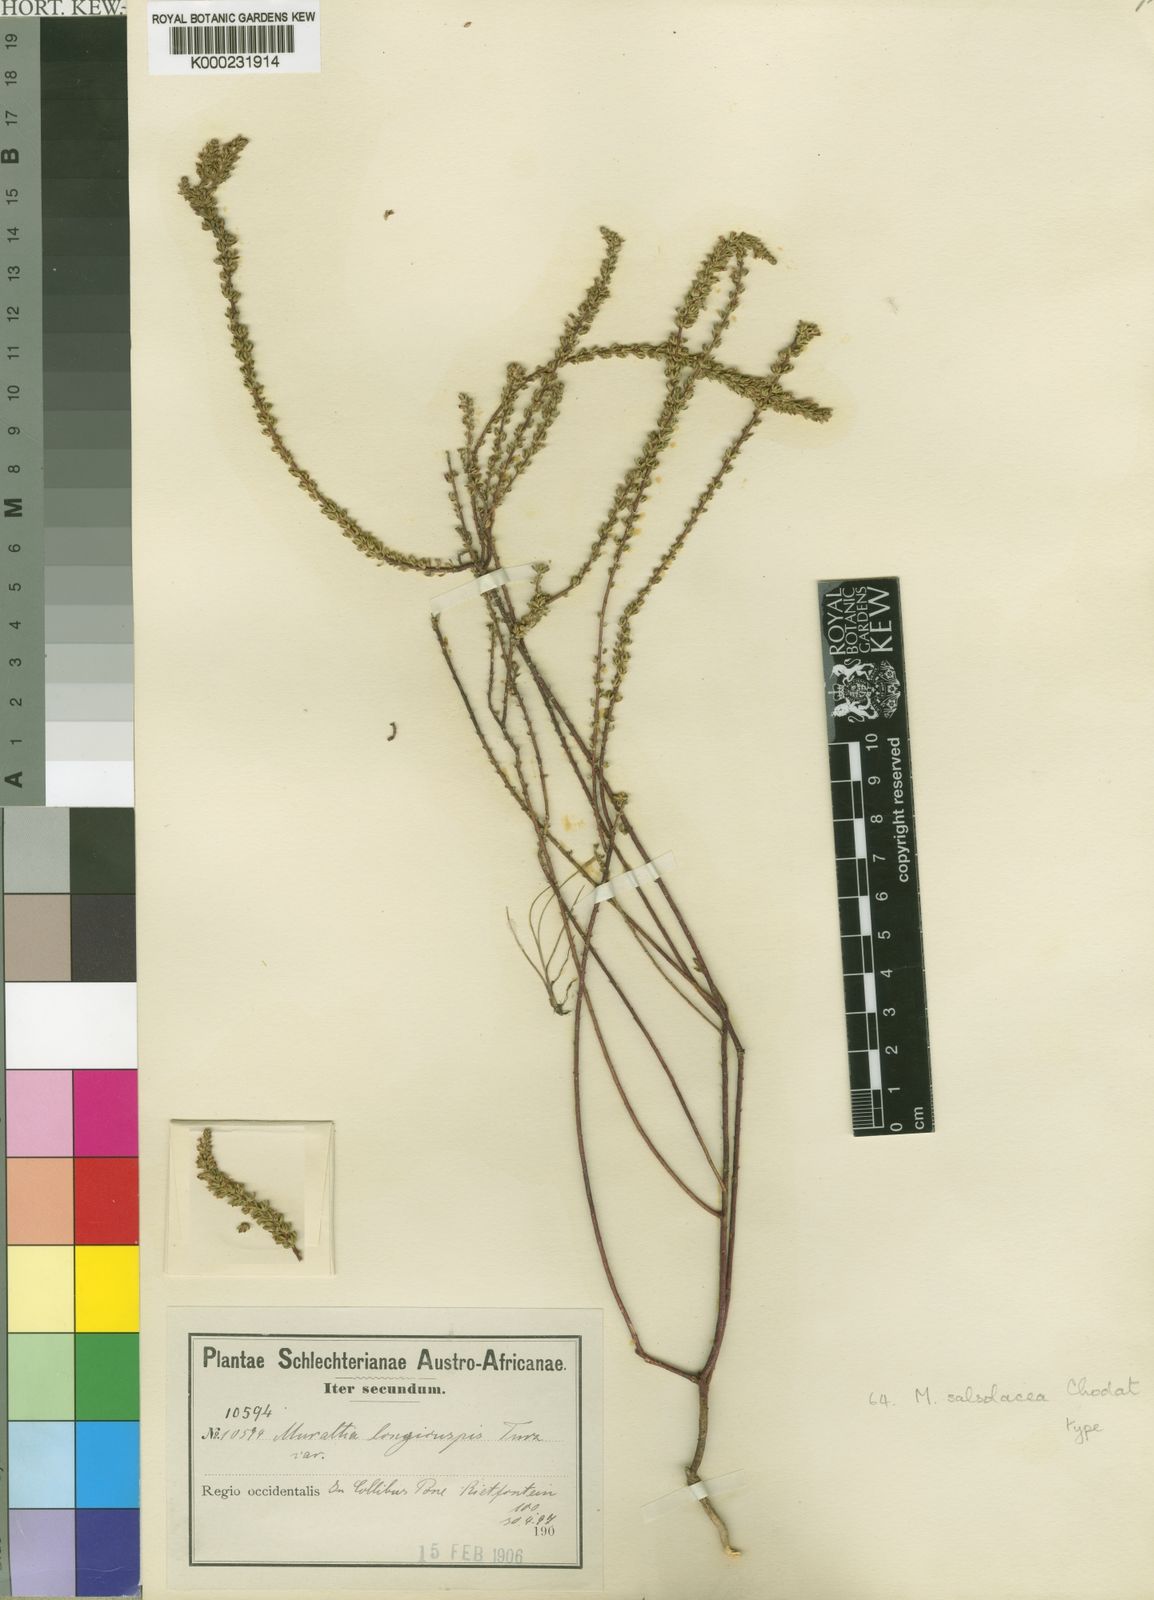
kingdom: Plantae
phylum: Tracheophyta
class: Magnoliopsida
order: Fabales
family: Polygalaceae
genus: Muraltia
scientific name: Muraltia salsolacea
